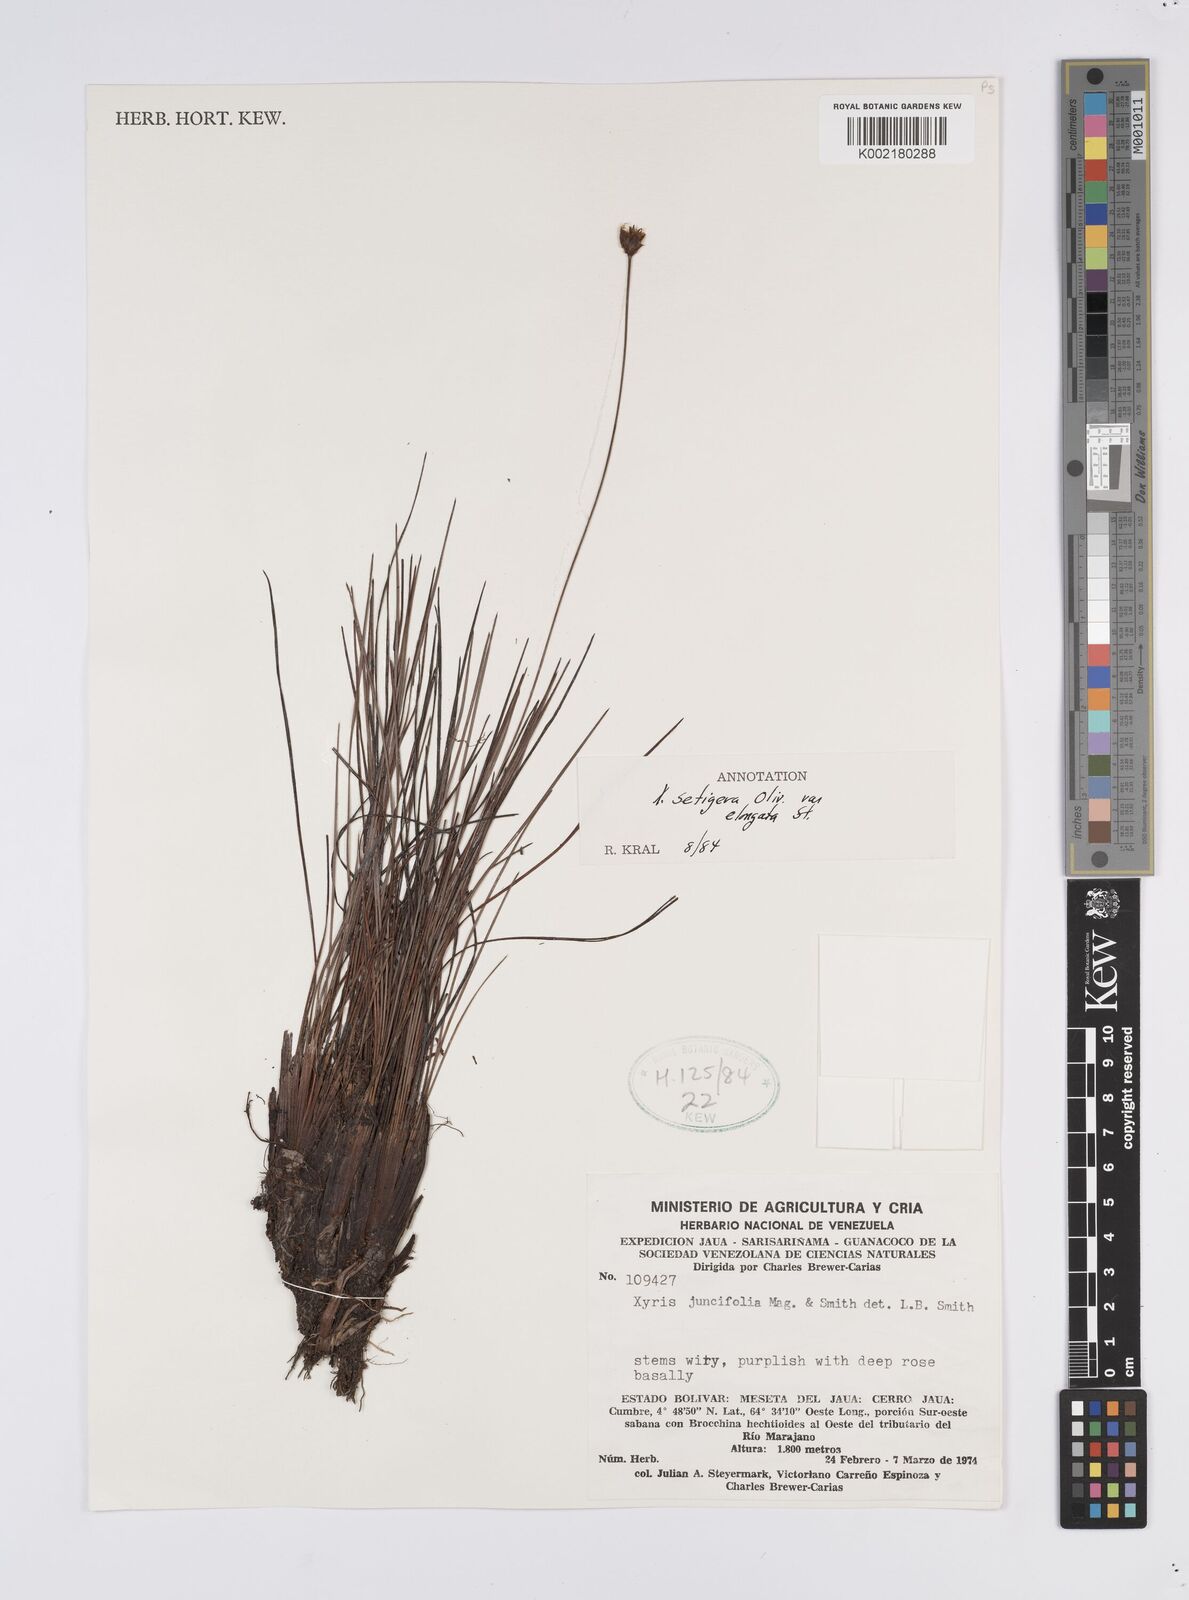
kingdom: Plantae
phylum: Tracheophyta
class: Liliopsida
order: Poales
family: Xyridaceae
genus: Xyris
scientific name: Xyris setigera
